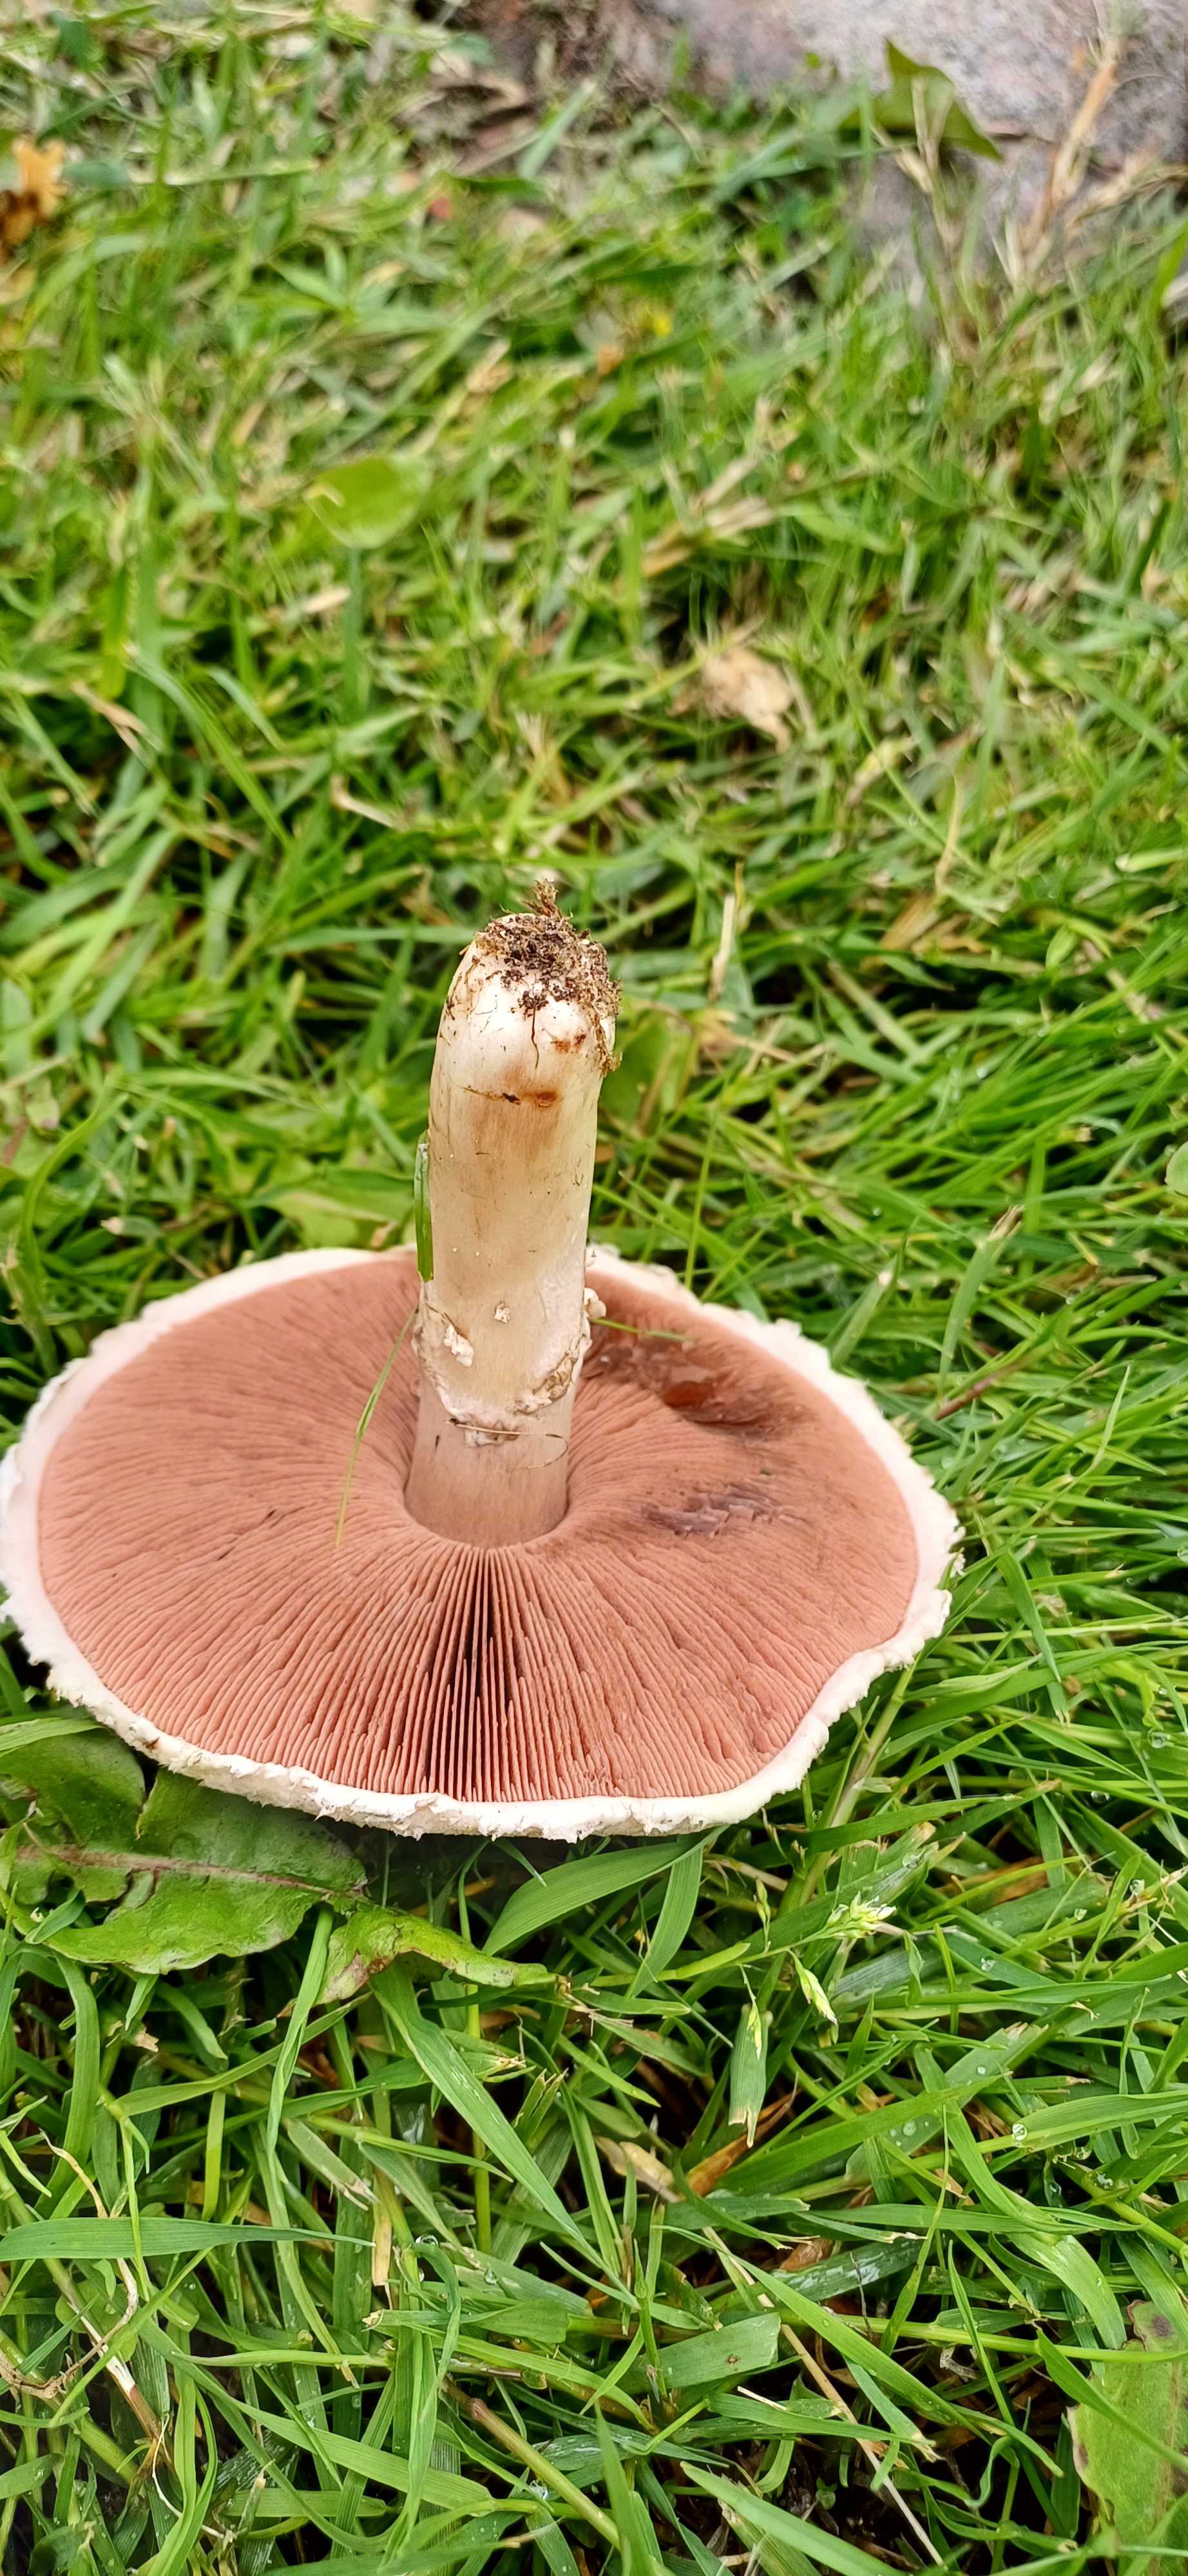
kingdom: Fungi
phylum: Basidiomycota
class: Agaricomycetes
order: Agaricales
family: Agaricaceae
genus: Agaricus
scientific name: Agaricus campestris
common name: mark-champignon
